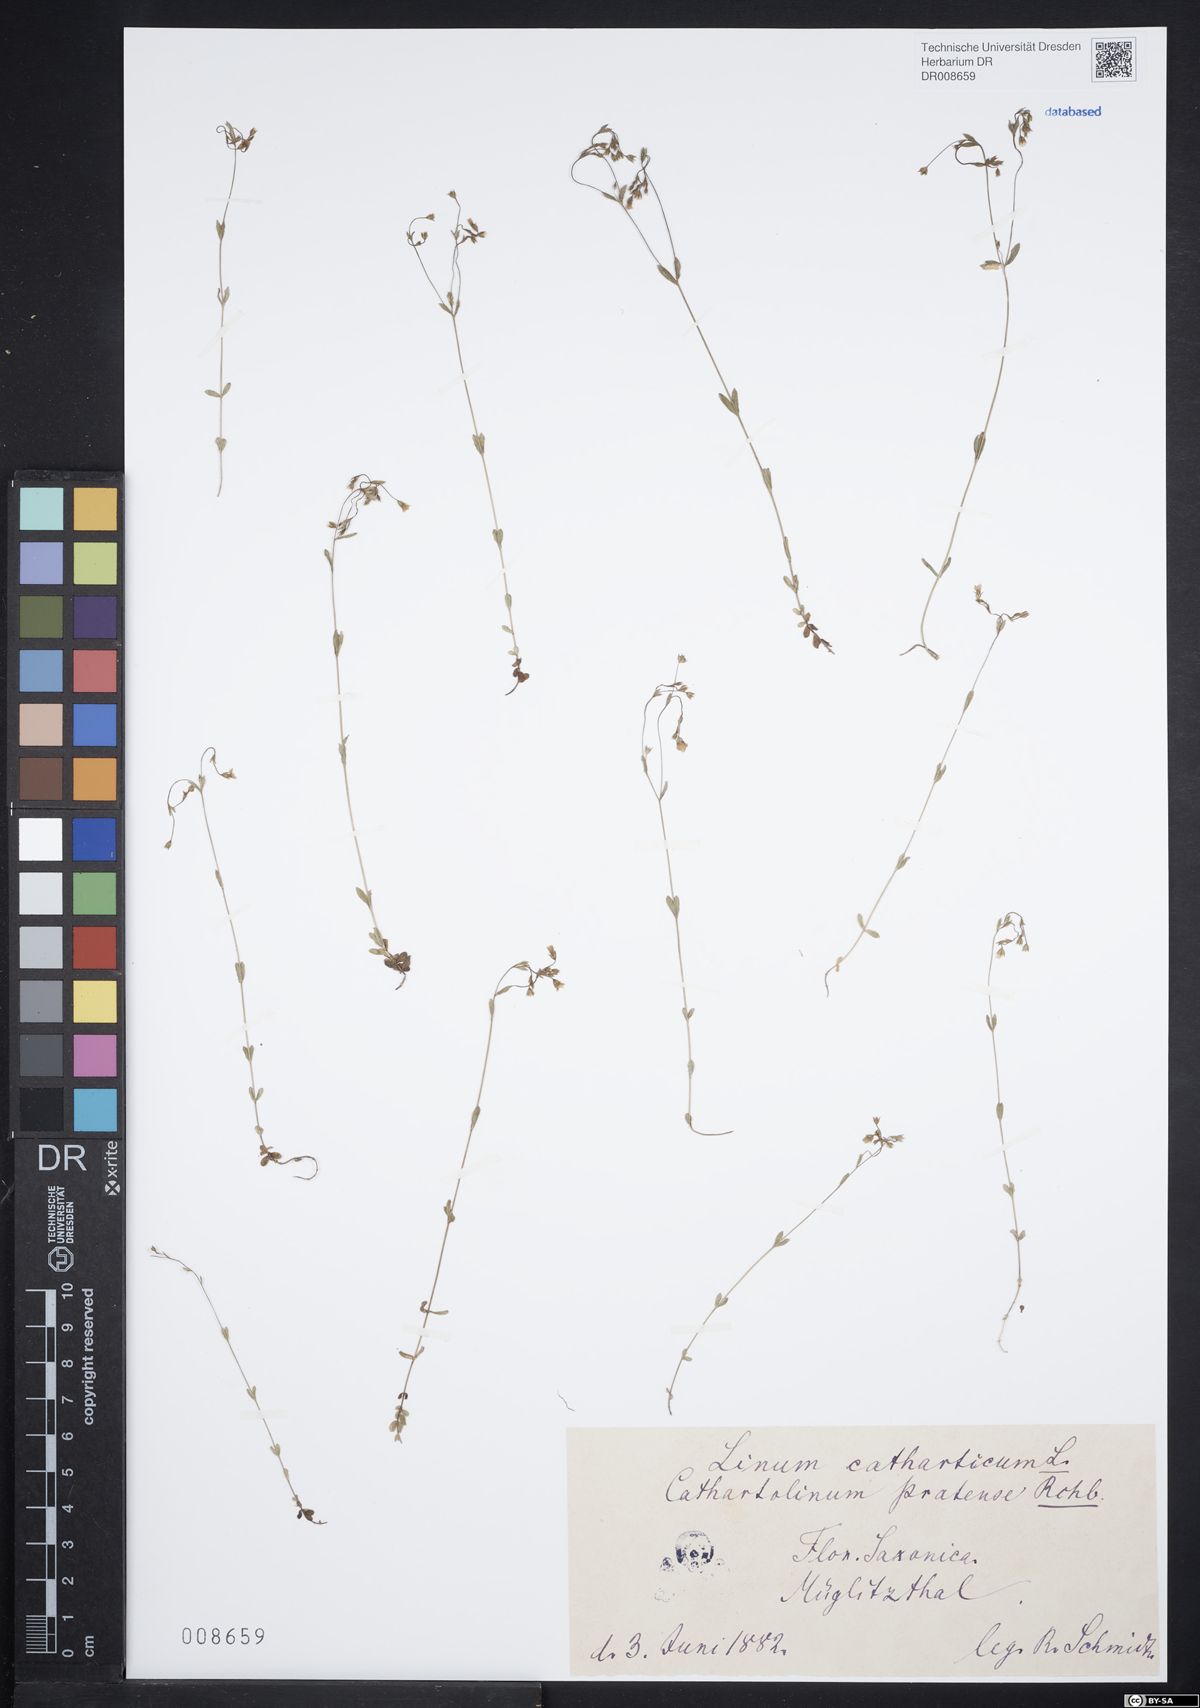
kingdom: Plantae
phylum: Tracheophyta
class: Magnoliopsida
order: Malpighiales
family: Linaceae
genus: Linum
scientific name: Linum catharticum
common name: Fairy flax
